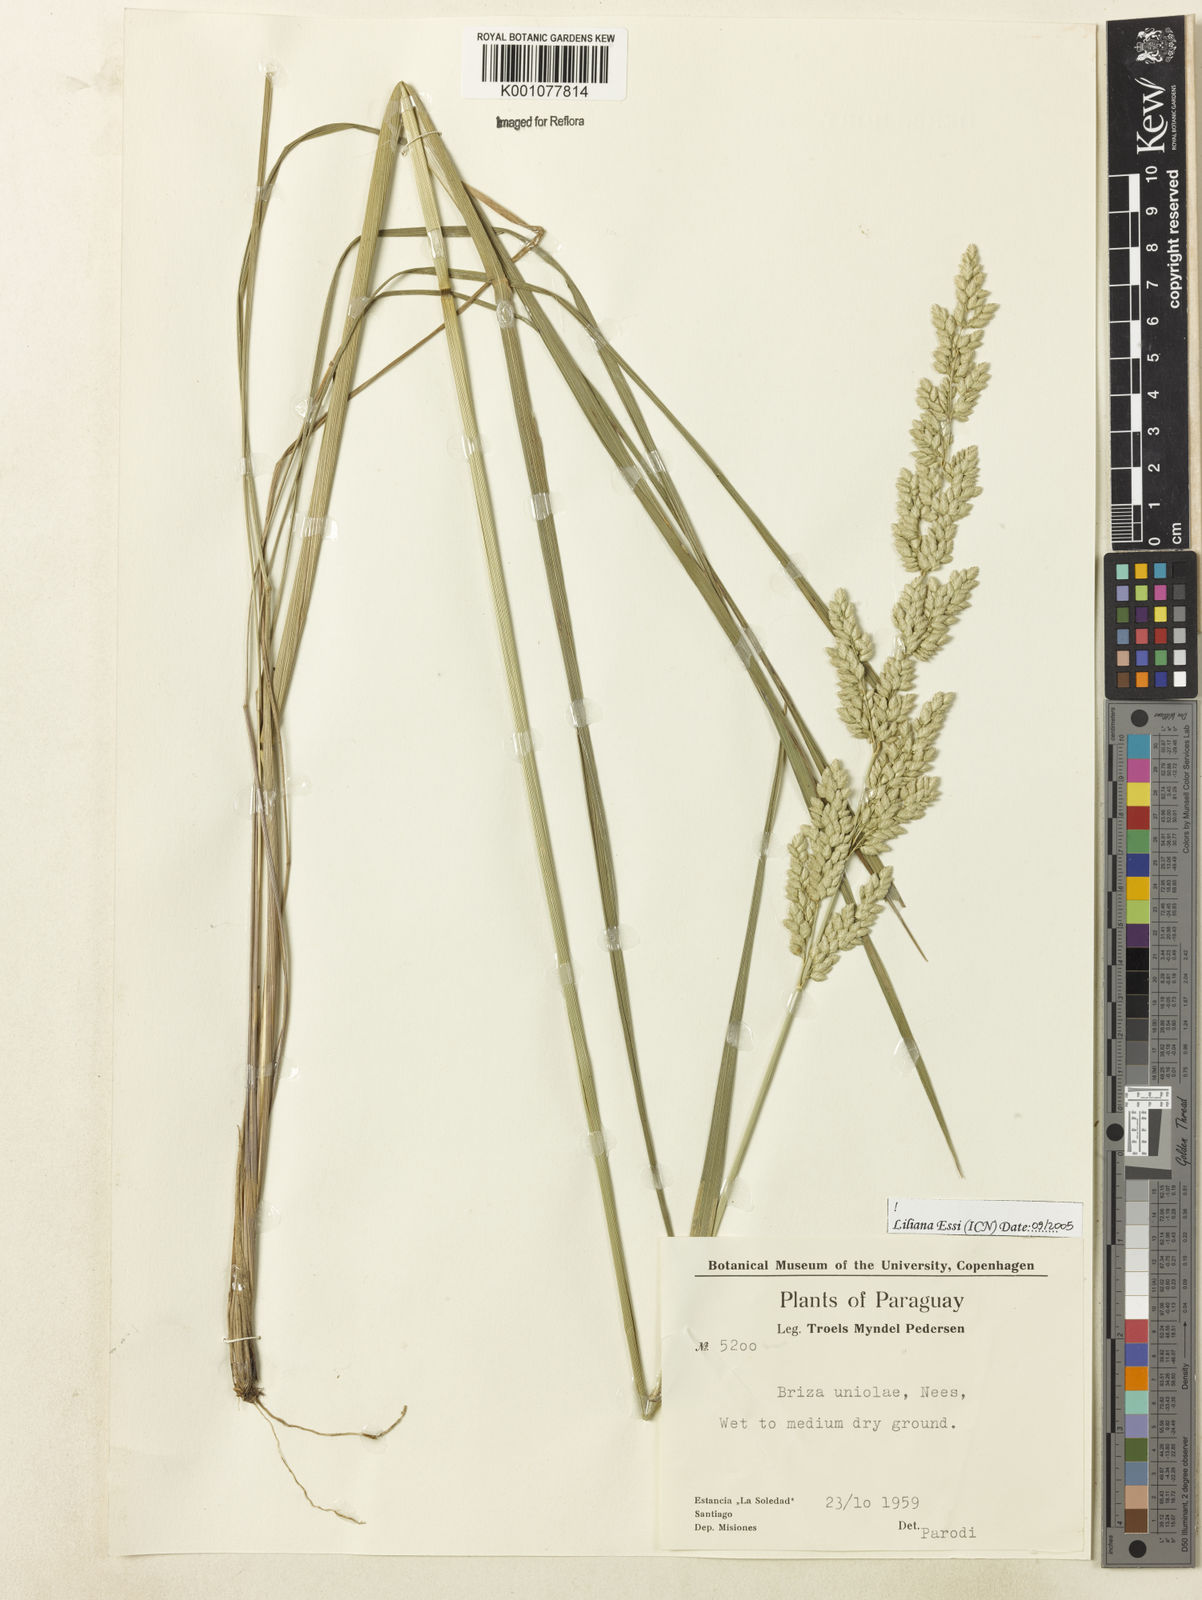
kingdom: Plantae
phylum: Tracheophyta
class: Liliopsida
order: Poales
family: Poaceae
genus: Poidium
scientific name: Poidium uniolae
